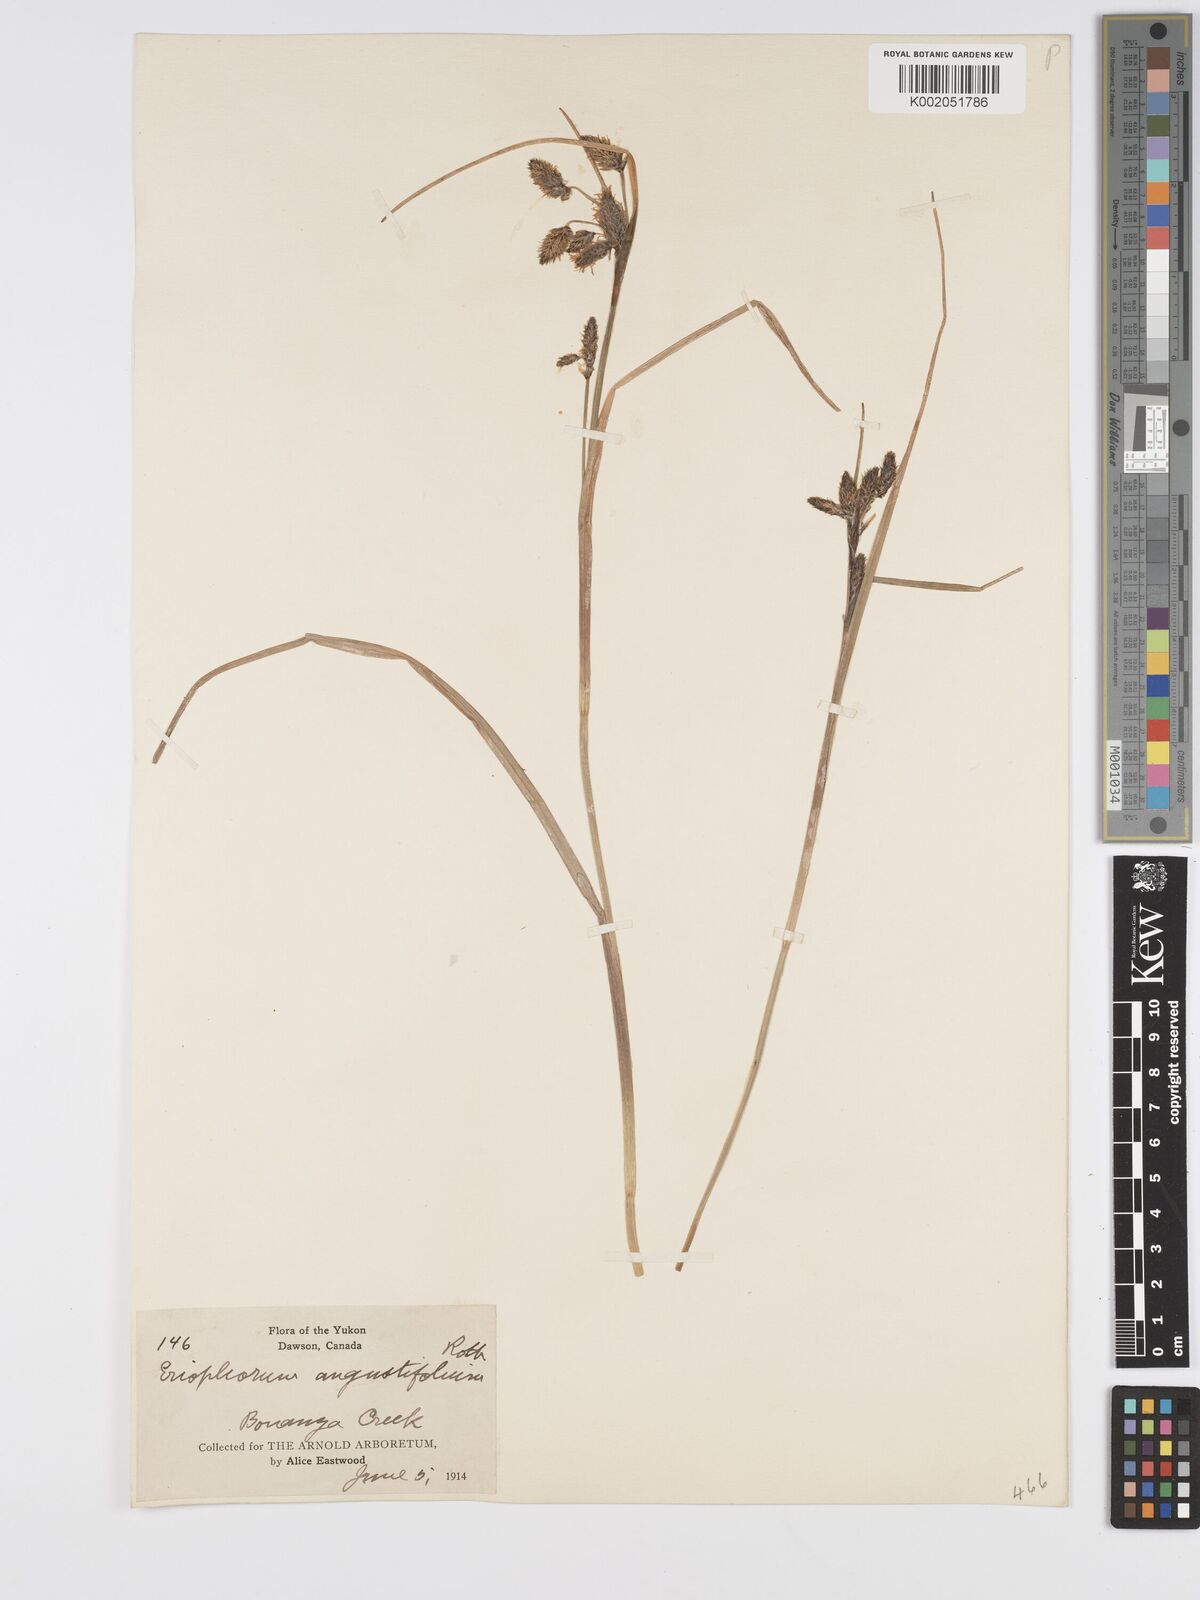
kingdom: Plantae
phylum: Tracheophyta
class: Liliopsida
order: Poales
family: Cyperaceae
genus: Eriophorum
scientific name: Eriophorum angustifolium
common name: Common cottongrass
